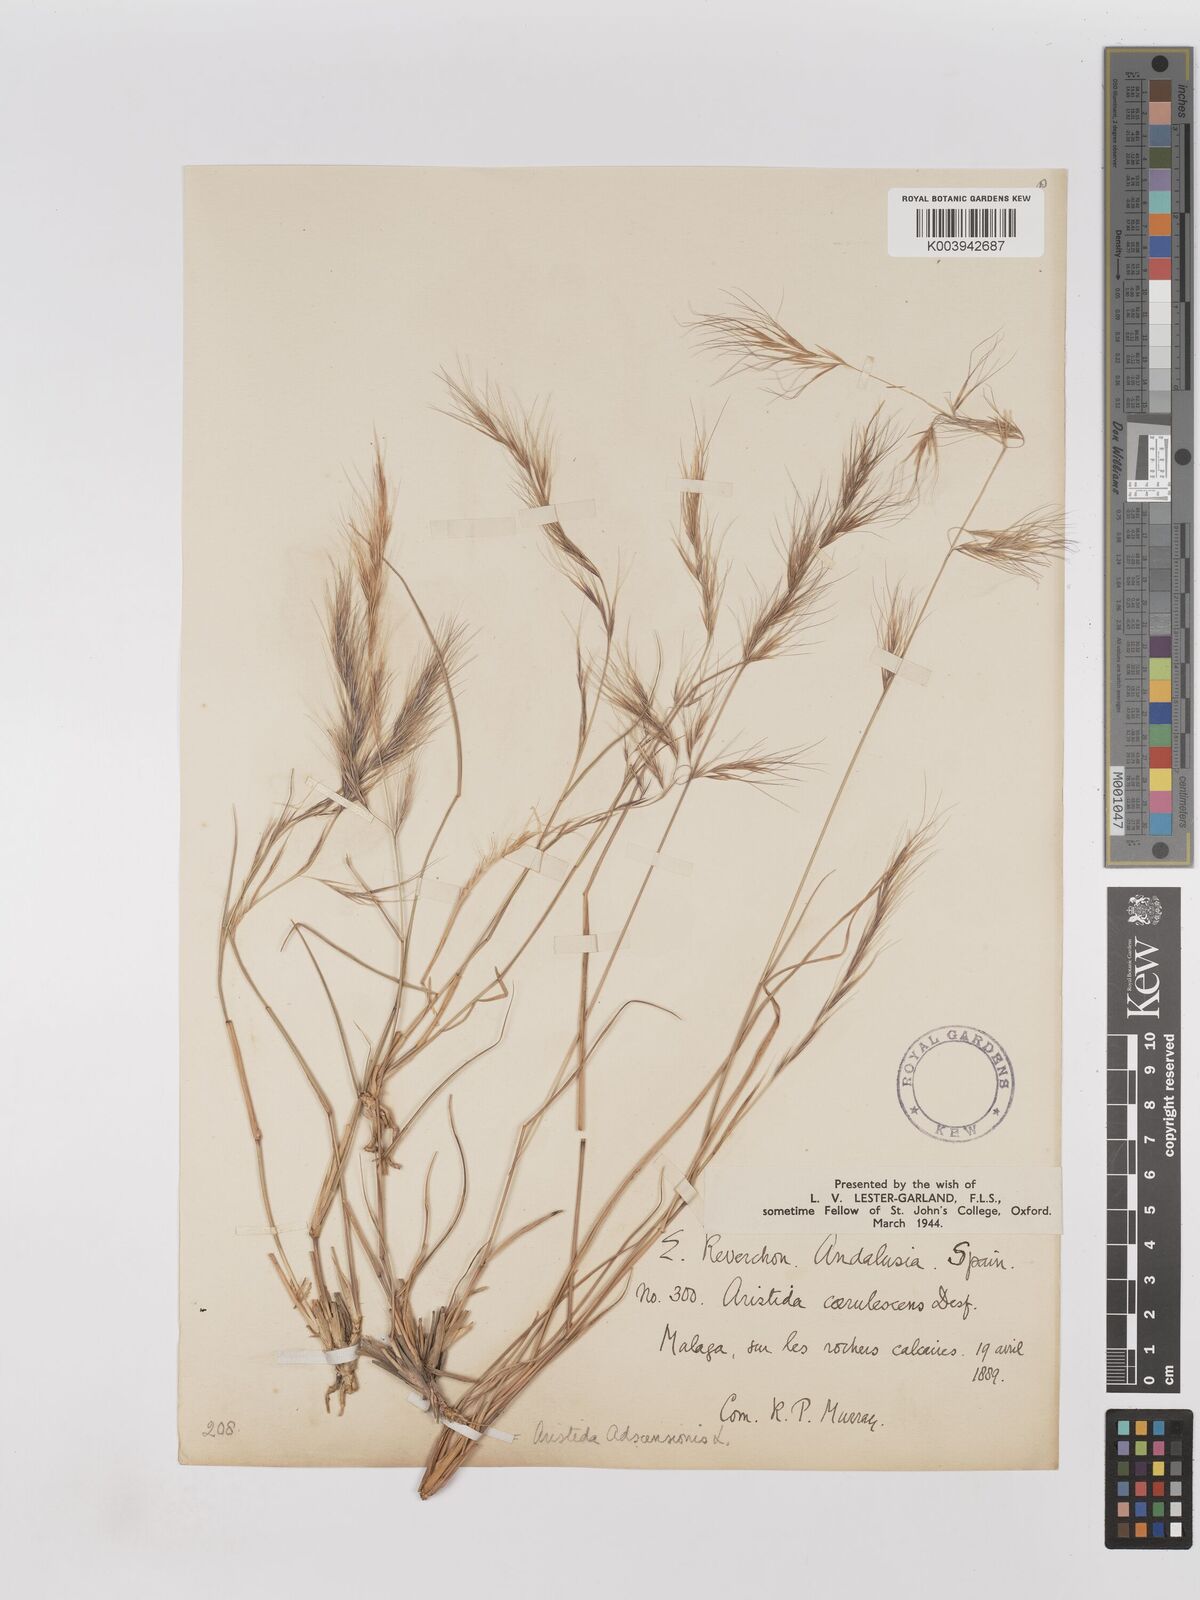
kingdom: Plantae
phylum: Tracheophyta
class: Liliopsida
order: Poales
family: Poaceae
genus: Aristida
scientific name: Aristida adscensionis
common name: Sixweeks threeawn
